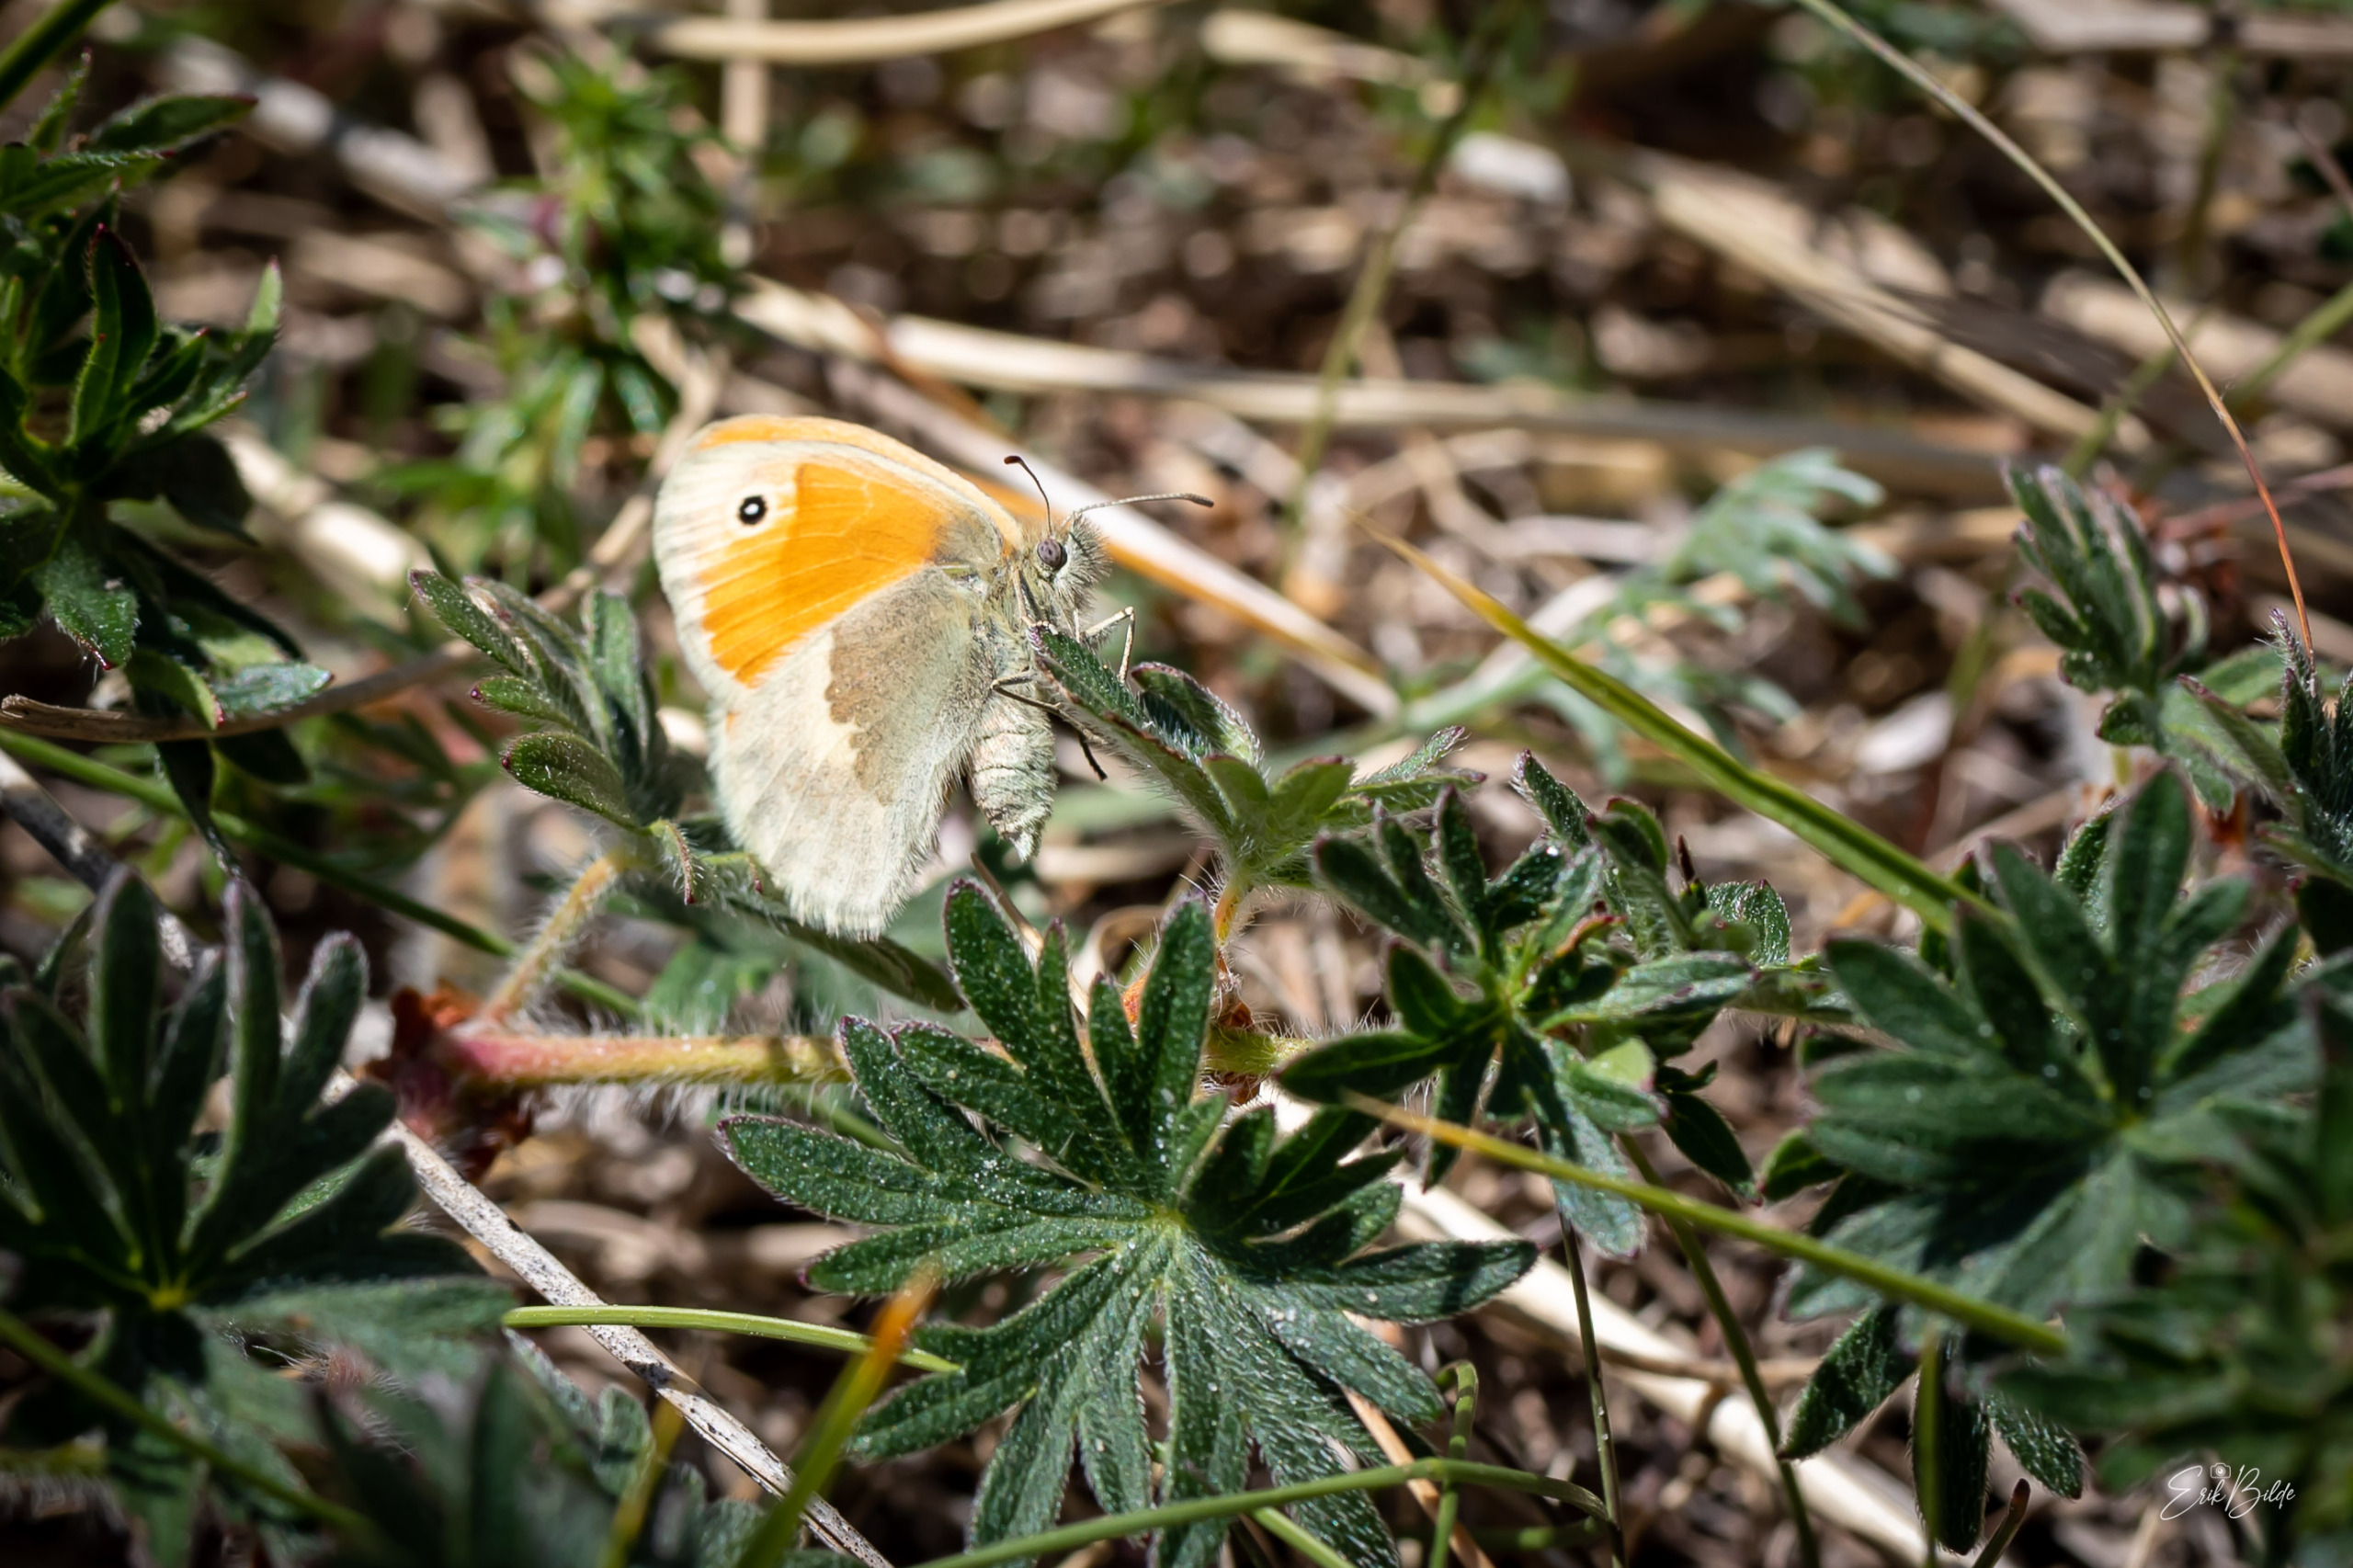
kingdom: Animalia
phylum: Arthropoda
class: Insecta
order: Lepidoptera
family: Nymphalidae
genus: Coenonympha
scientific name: Coenonympha pamphilus
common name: Okkergul randøje
